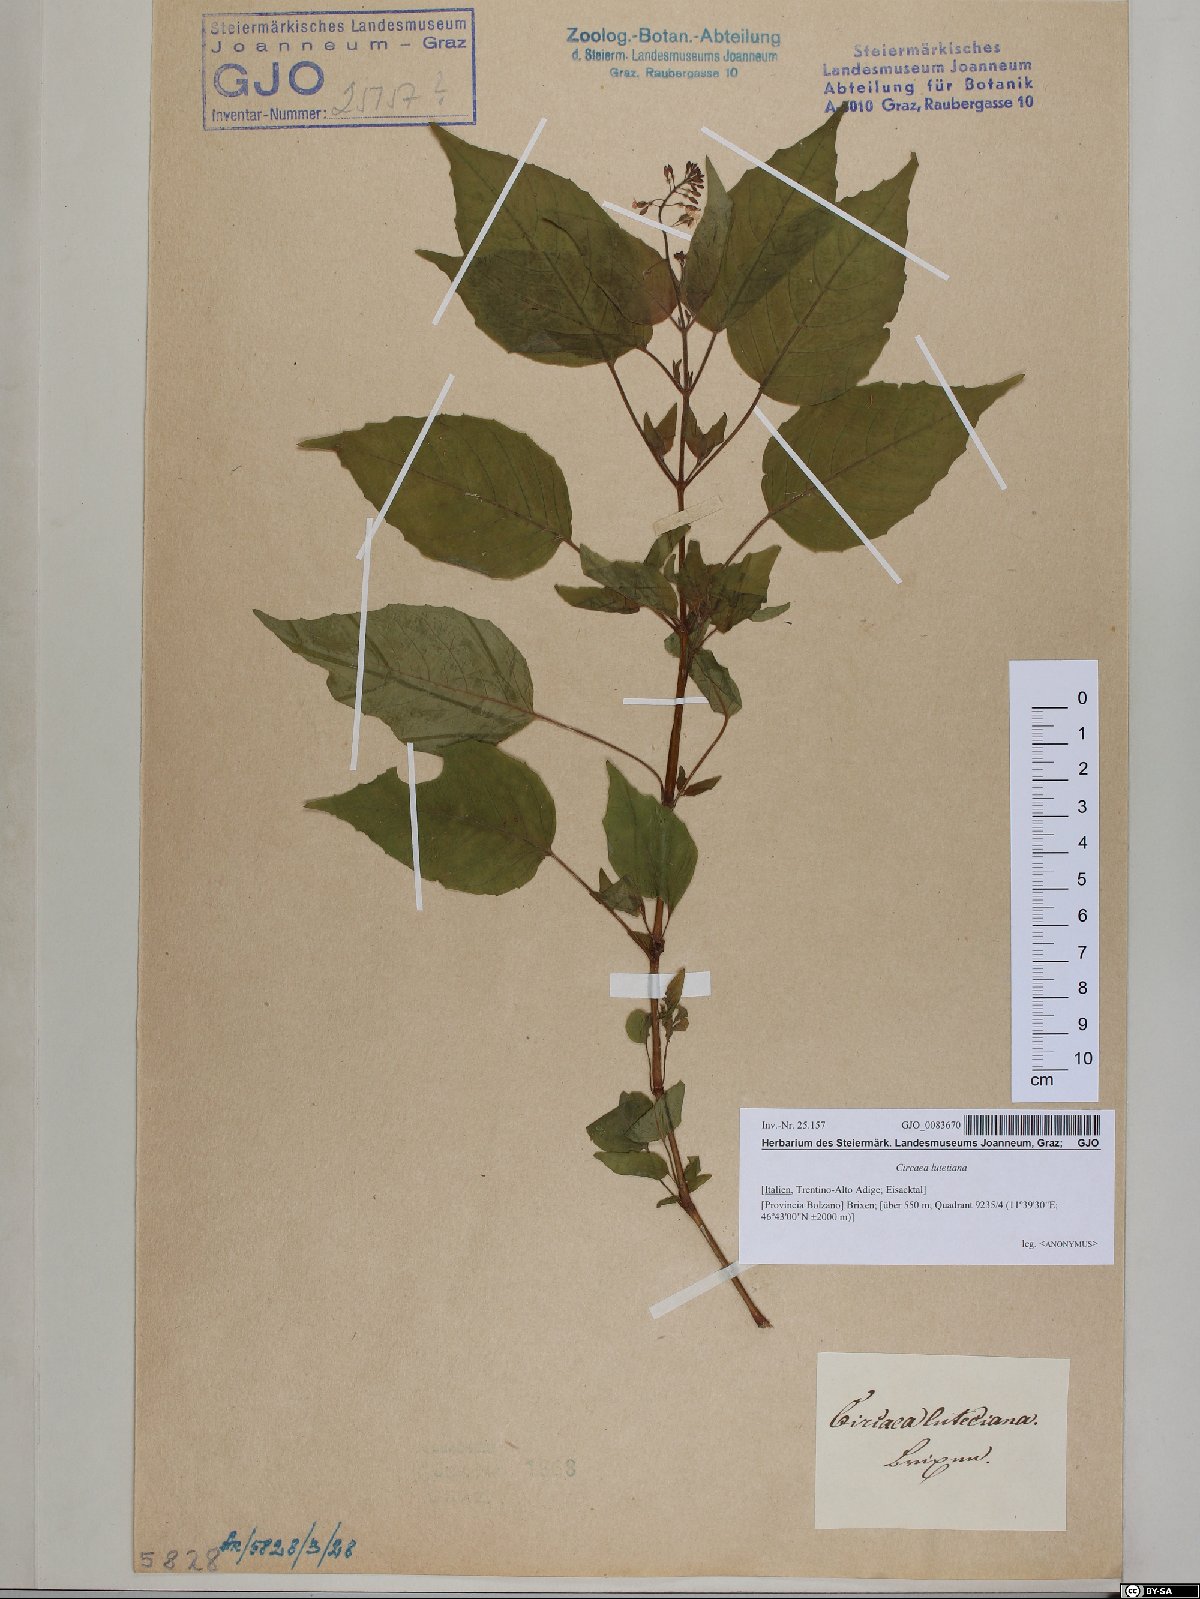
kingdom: Plantae
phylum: Tracheophyta
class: Magnoliopsida
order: Myrtales
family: Onagraceae
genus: Circaea
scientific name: Circaea lutetiana
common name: Enchanter's-nightshade
